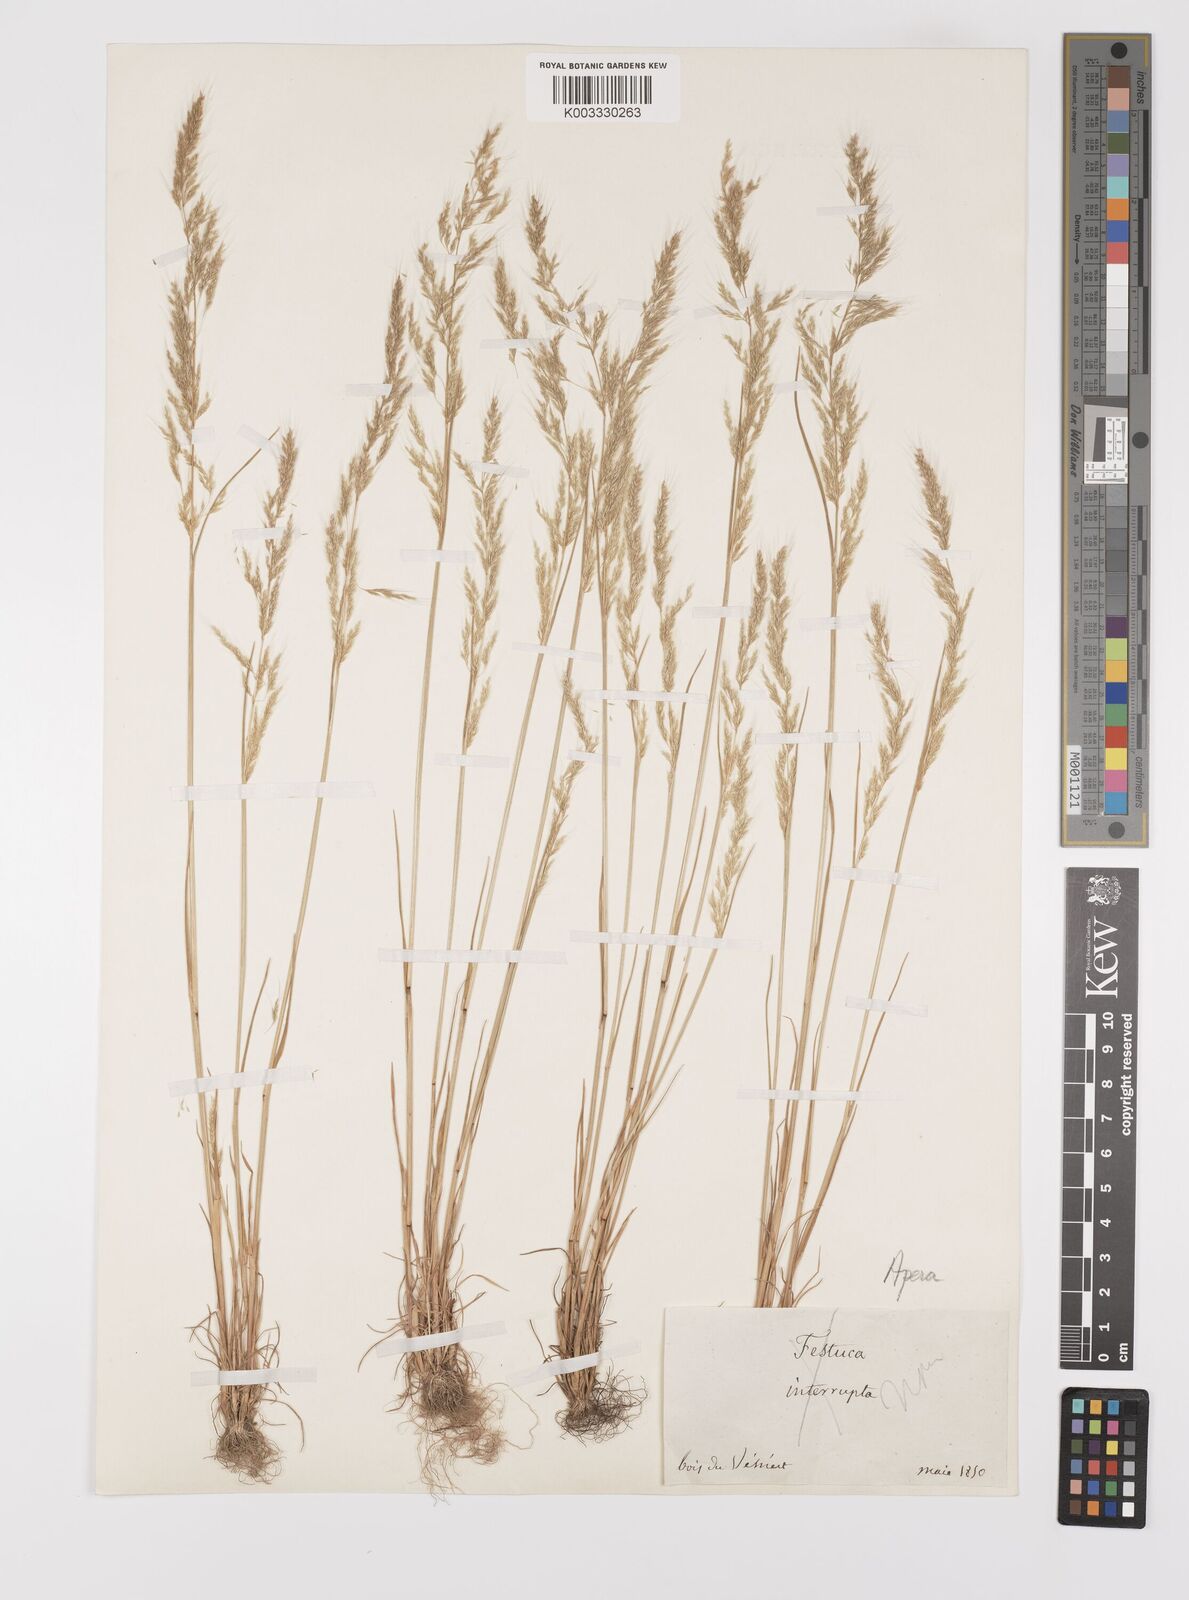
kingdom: Plantae
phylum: Tracheophyta
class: Liliopsida
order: Poales
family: Poaceae
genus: Apera
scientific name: Apera
